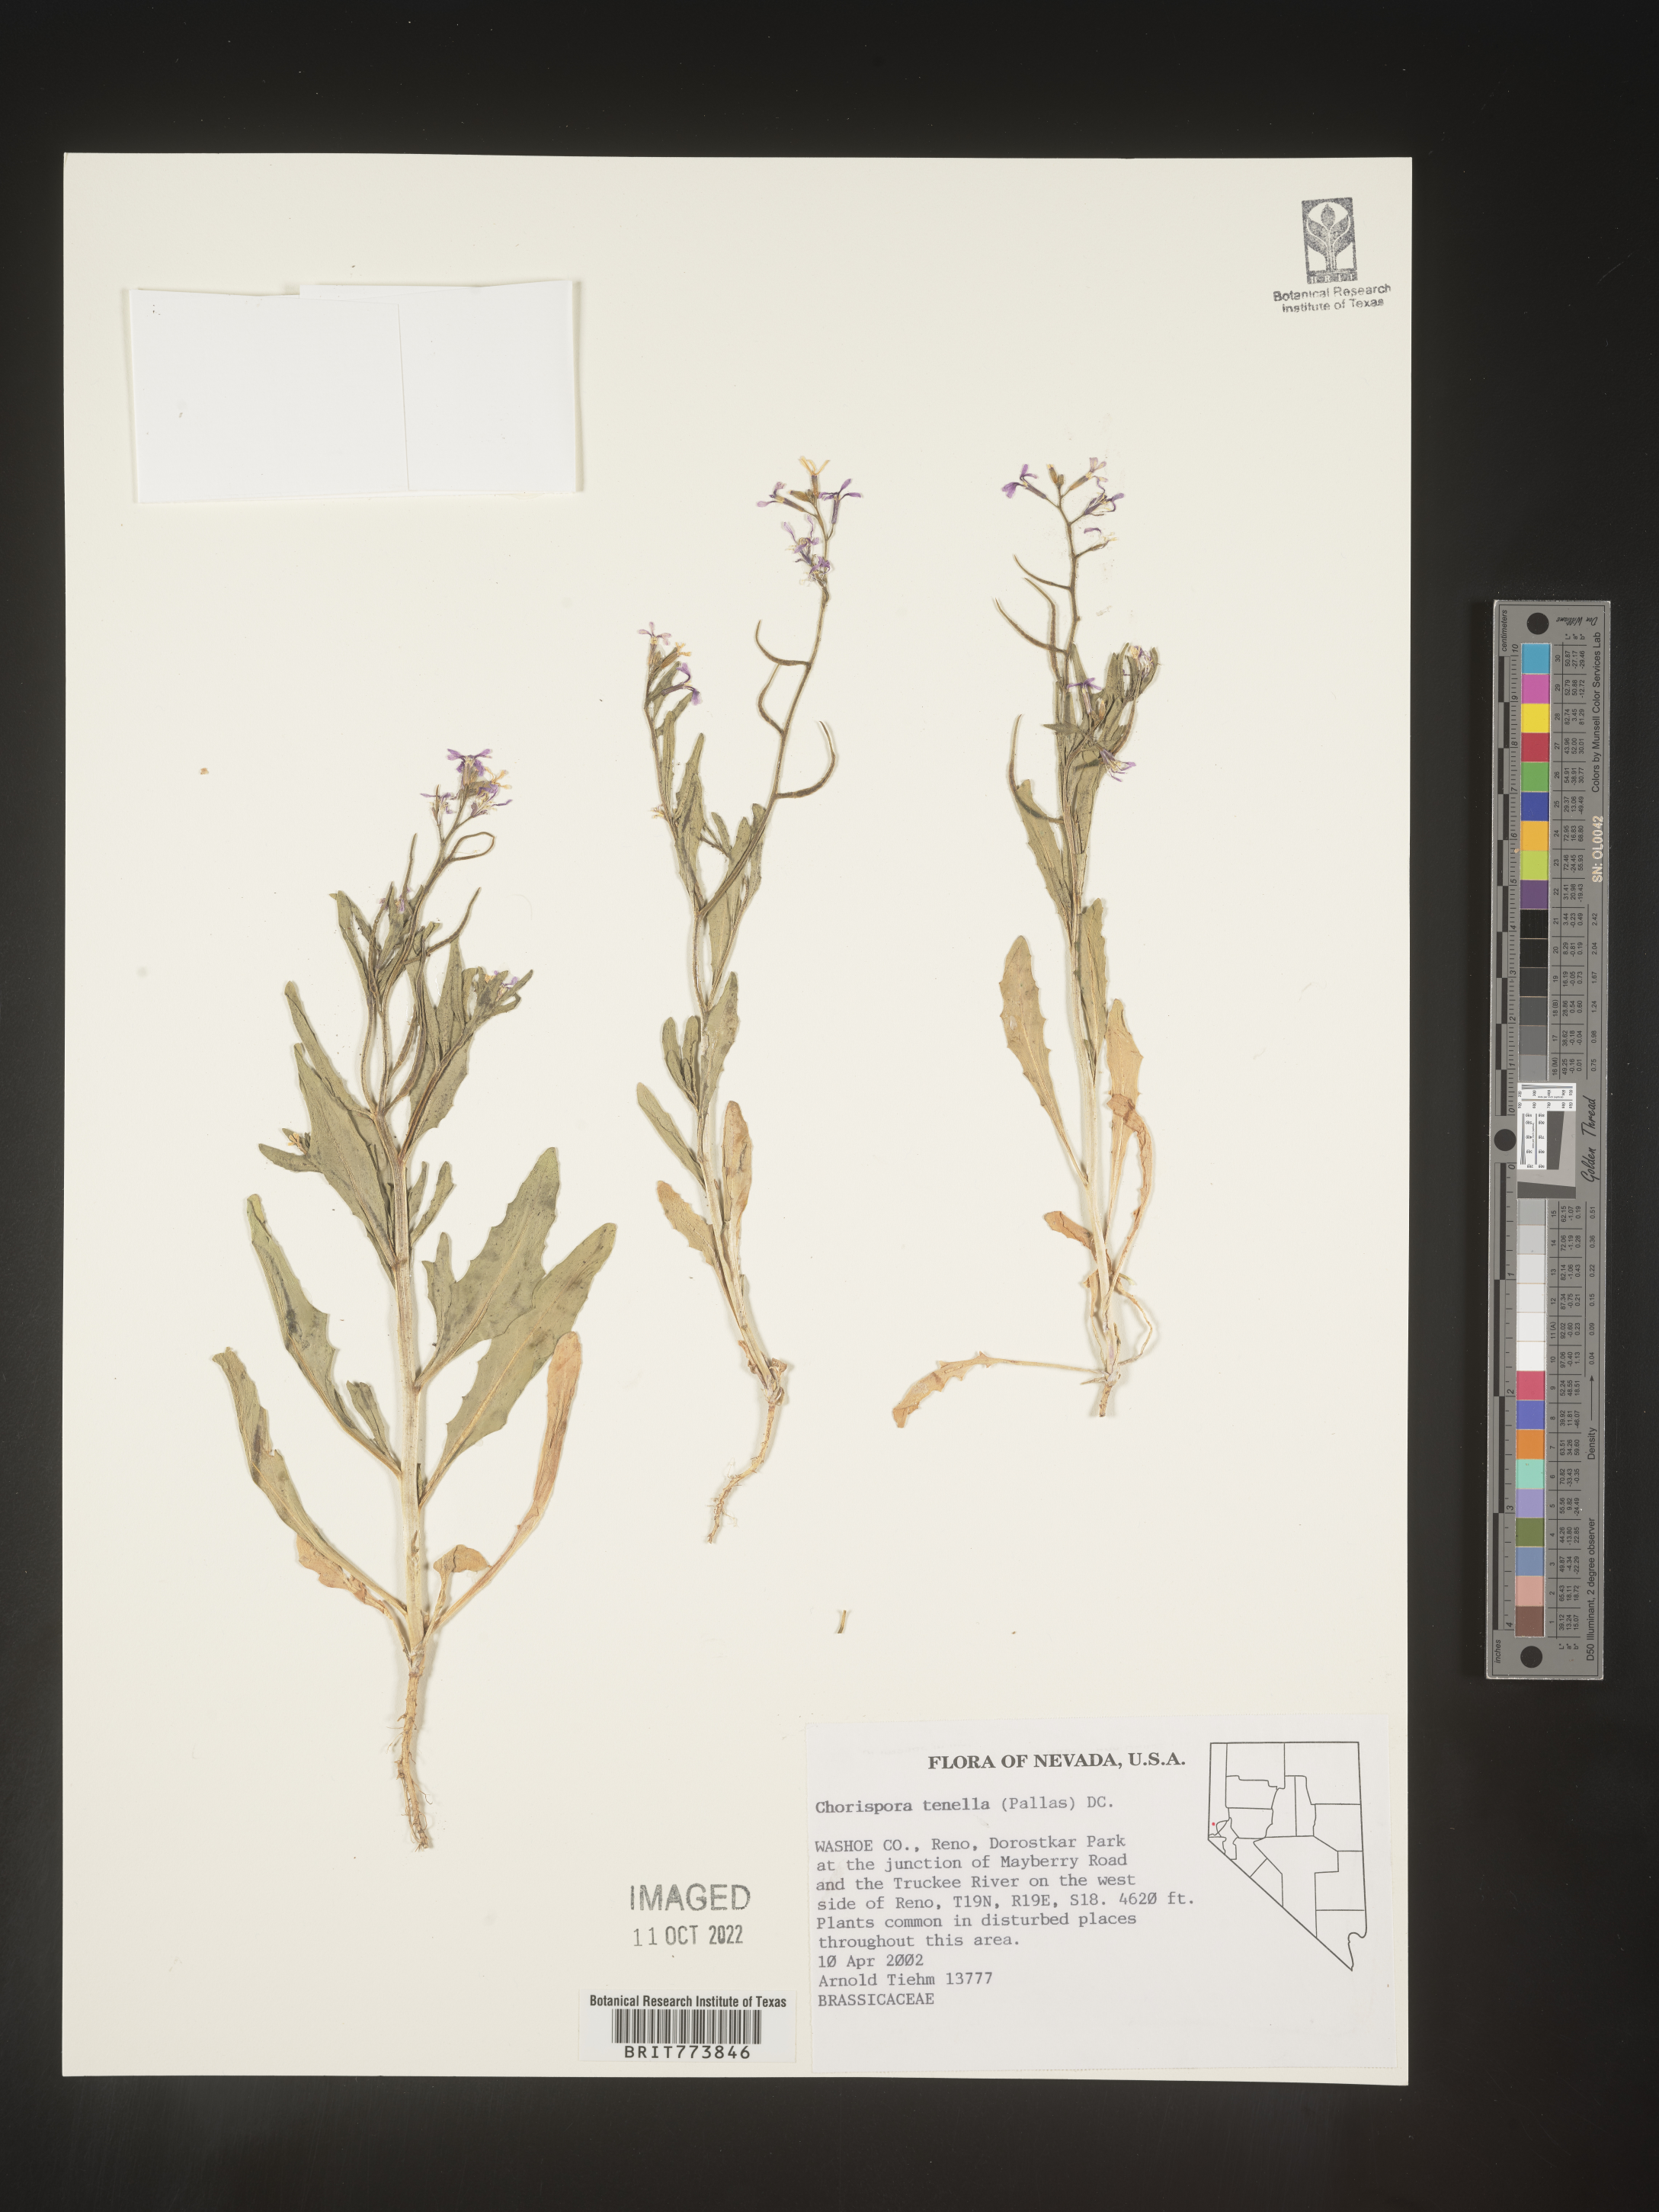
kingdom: Plantae
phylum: Tracheophyta
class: Magnoliopsida
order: Brassicales
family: Brassicaceae
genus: Chorispora
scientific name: Chorispora tenella
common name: Crossflower
